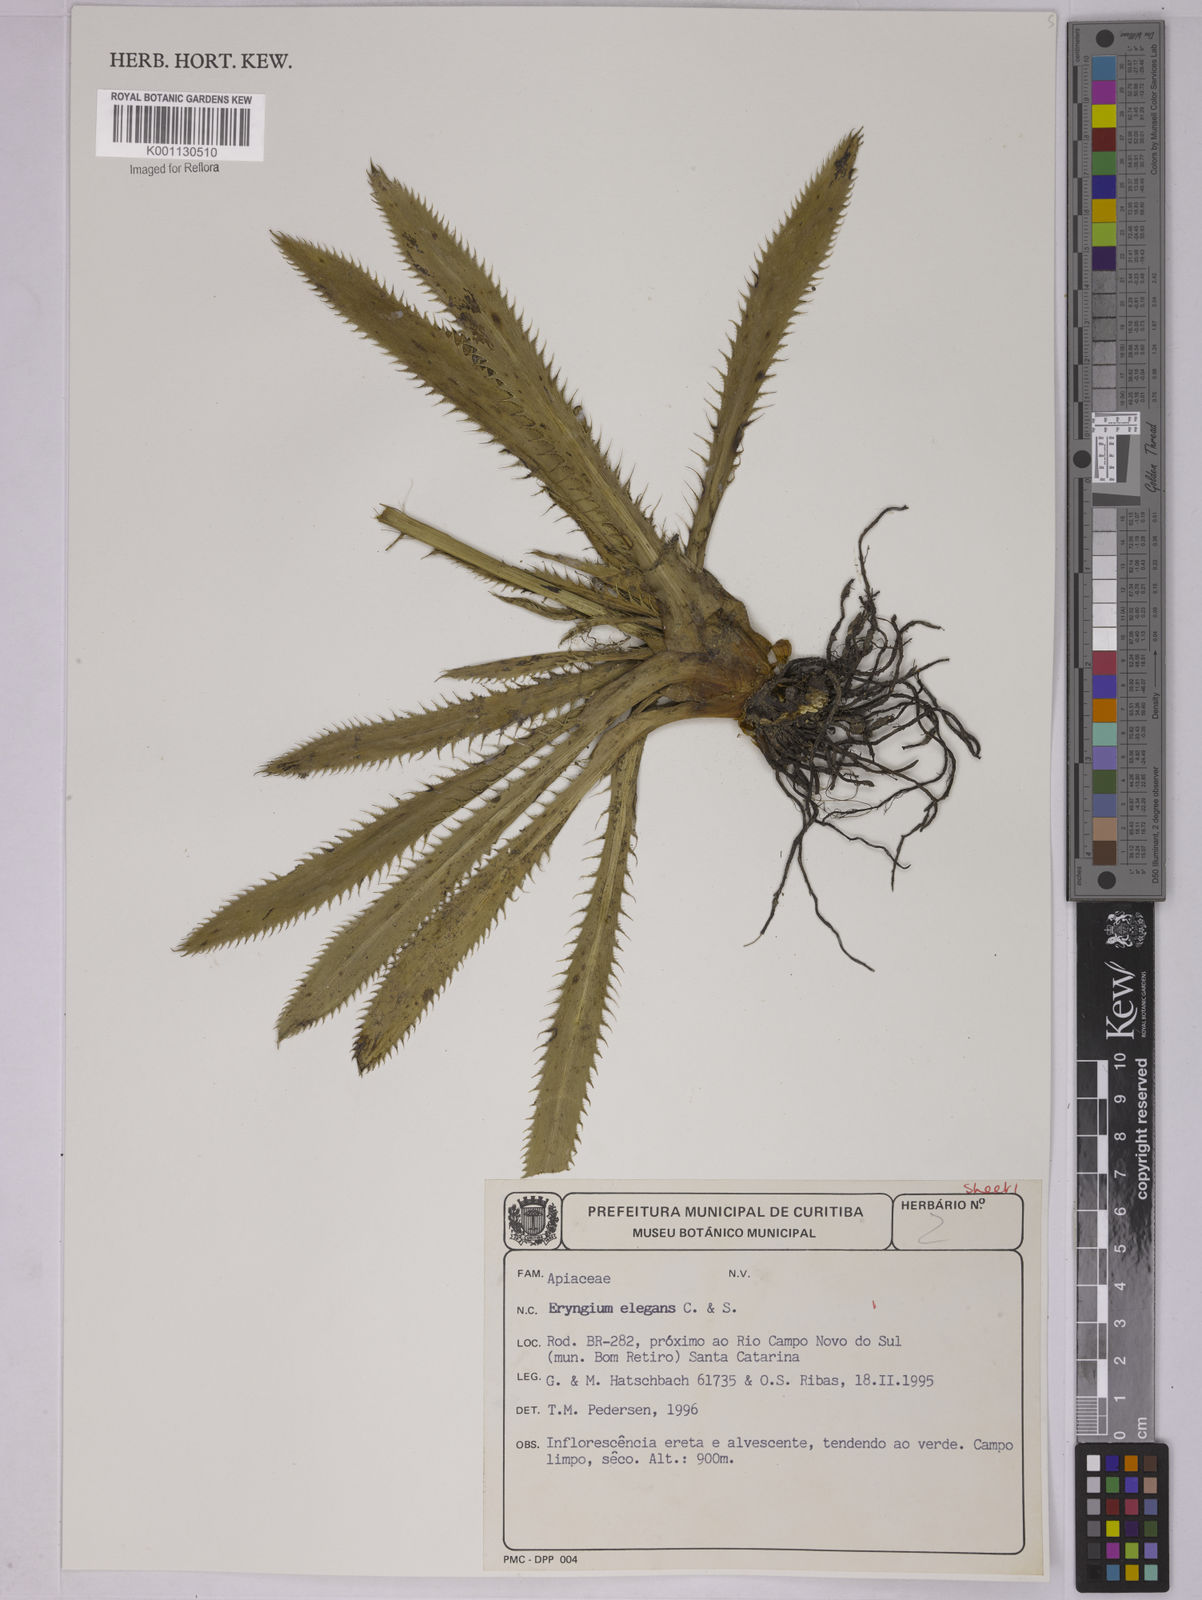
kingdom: Plantae
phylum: Tracheophyta
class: Magnoliopsida
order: Apiales
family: Apiaceae
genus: Eryngium
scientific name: Eryngium elegans
